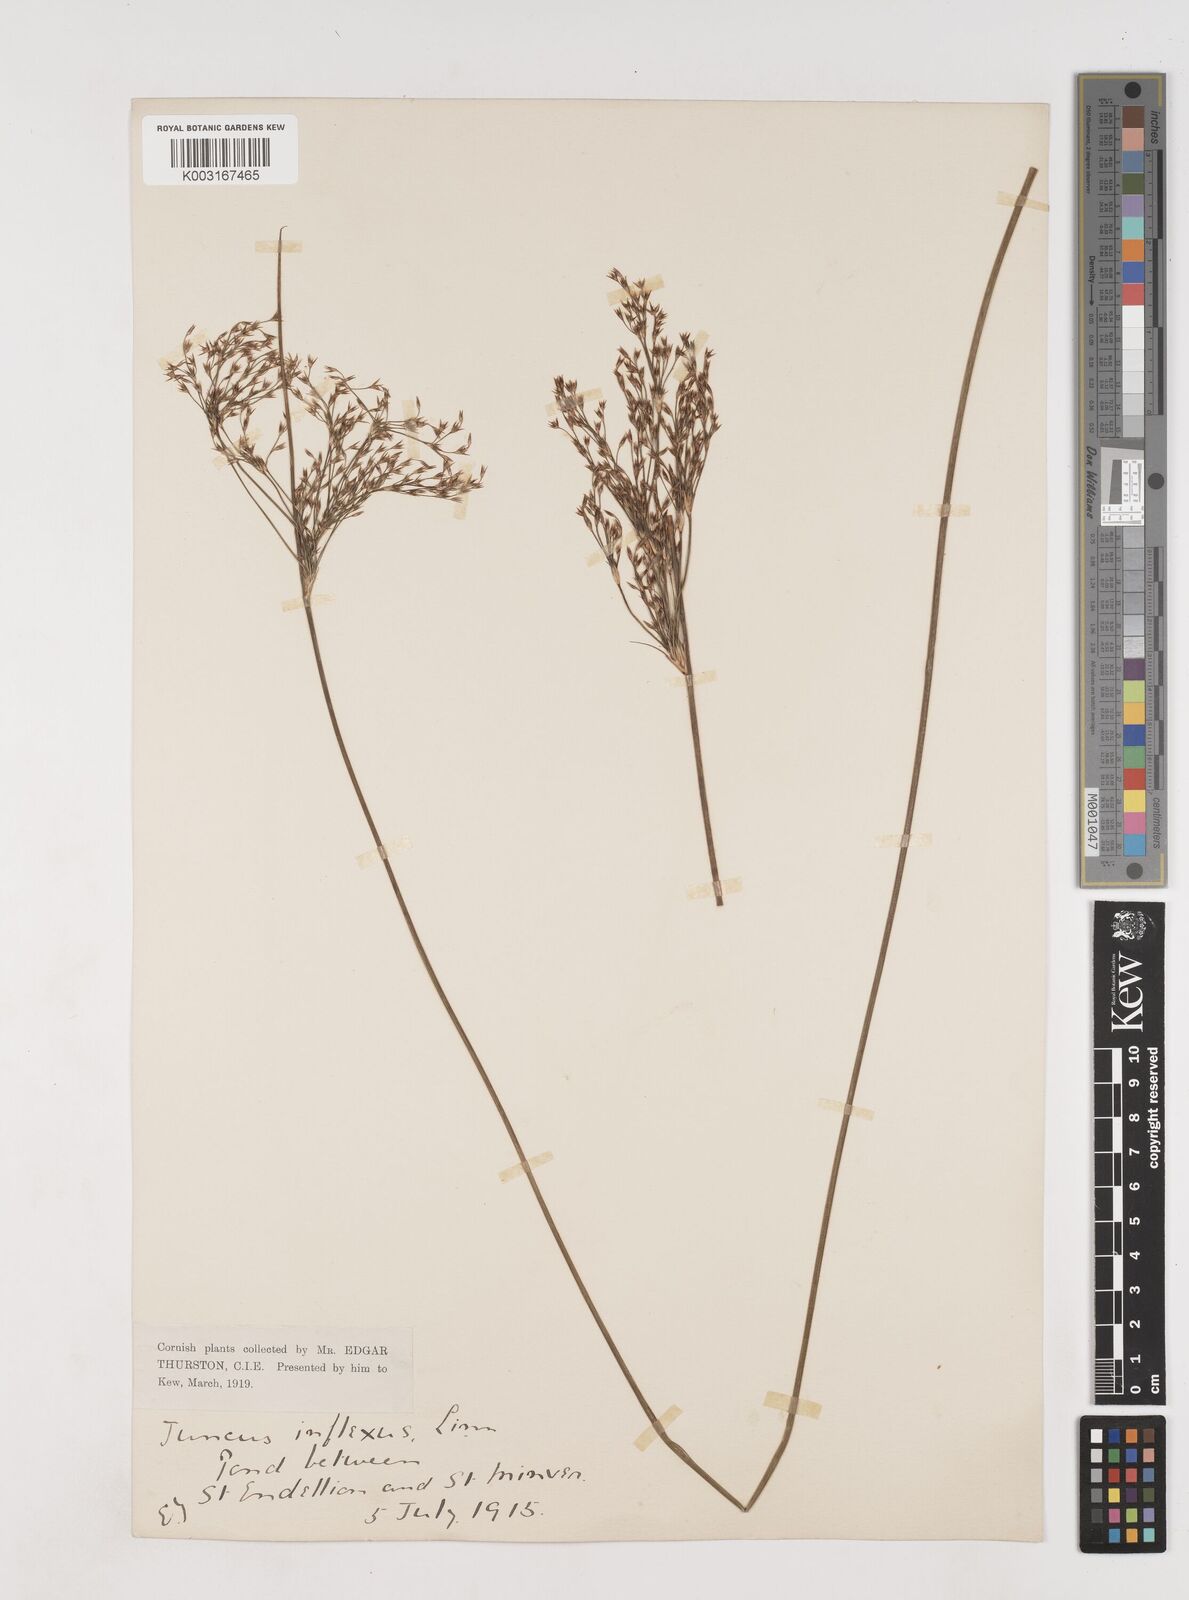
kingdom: Plantae
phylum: Tracheophyta
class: Liliopsida
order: Poales
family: Juncaceae
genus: Juncus
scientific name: Juncus inflexus
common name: Hard rush
